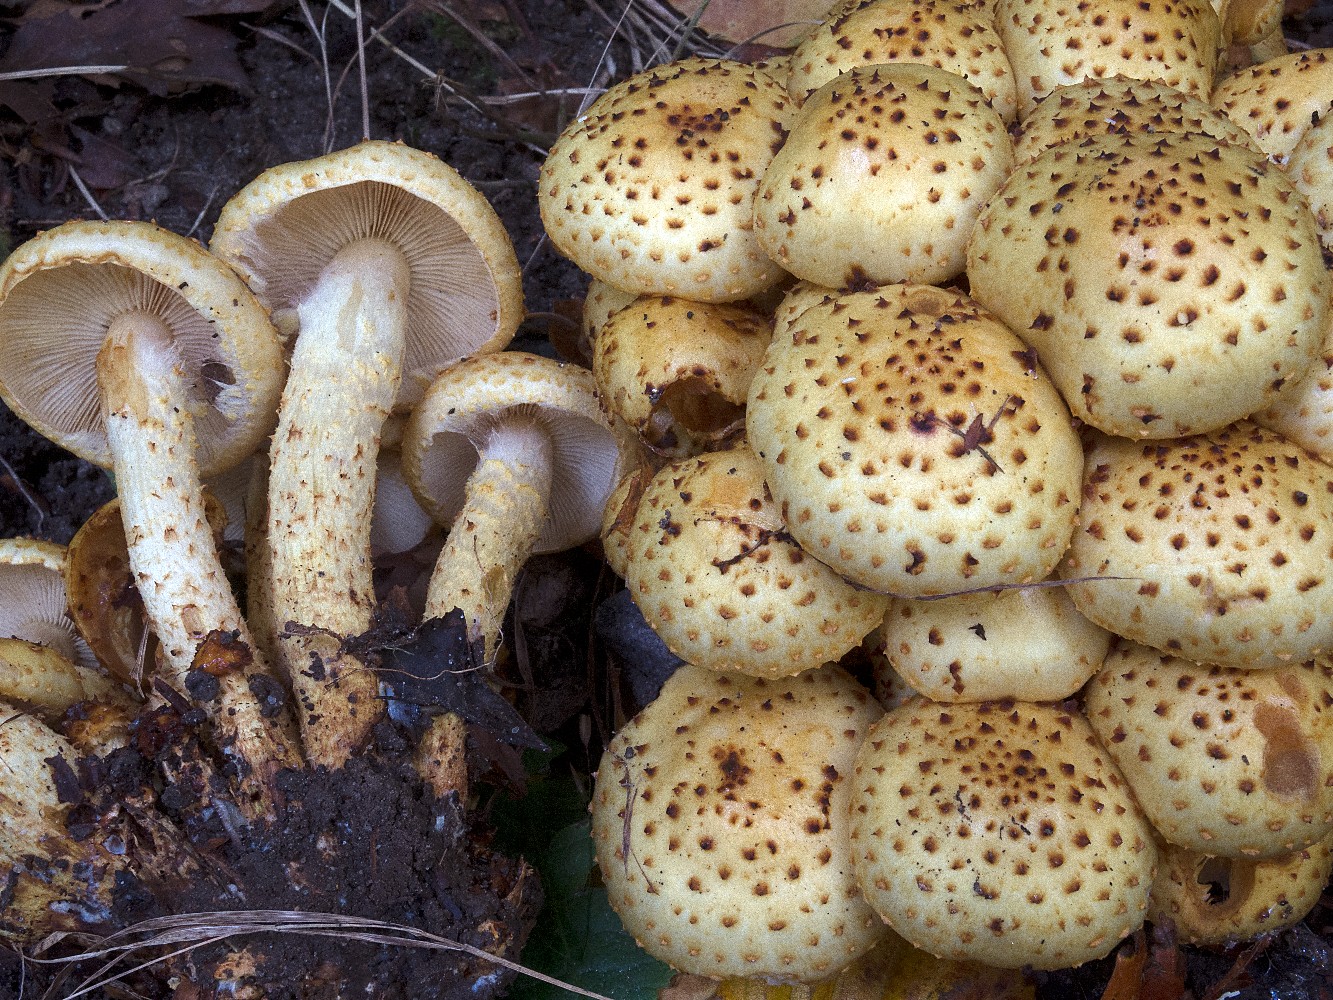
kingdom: Fungi
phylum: Basidiomycota
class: Agaricomycetes
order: Agaricales
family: Strophariaceae
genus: Pholiota
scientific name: Pholiota jahnii
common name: slimet skælhat
